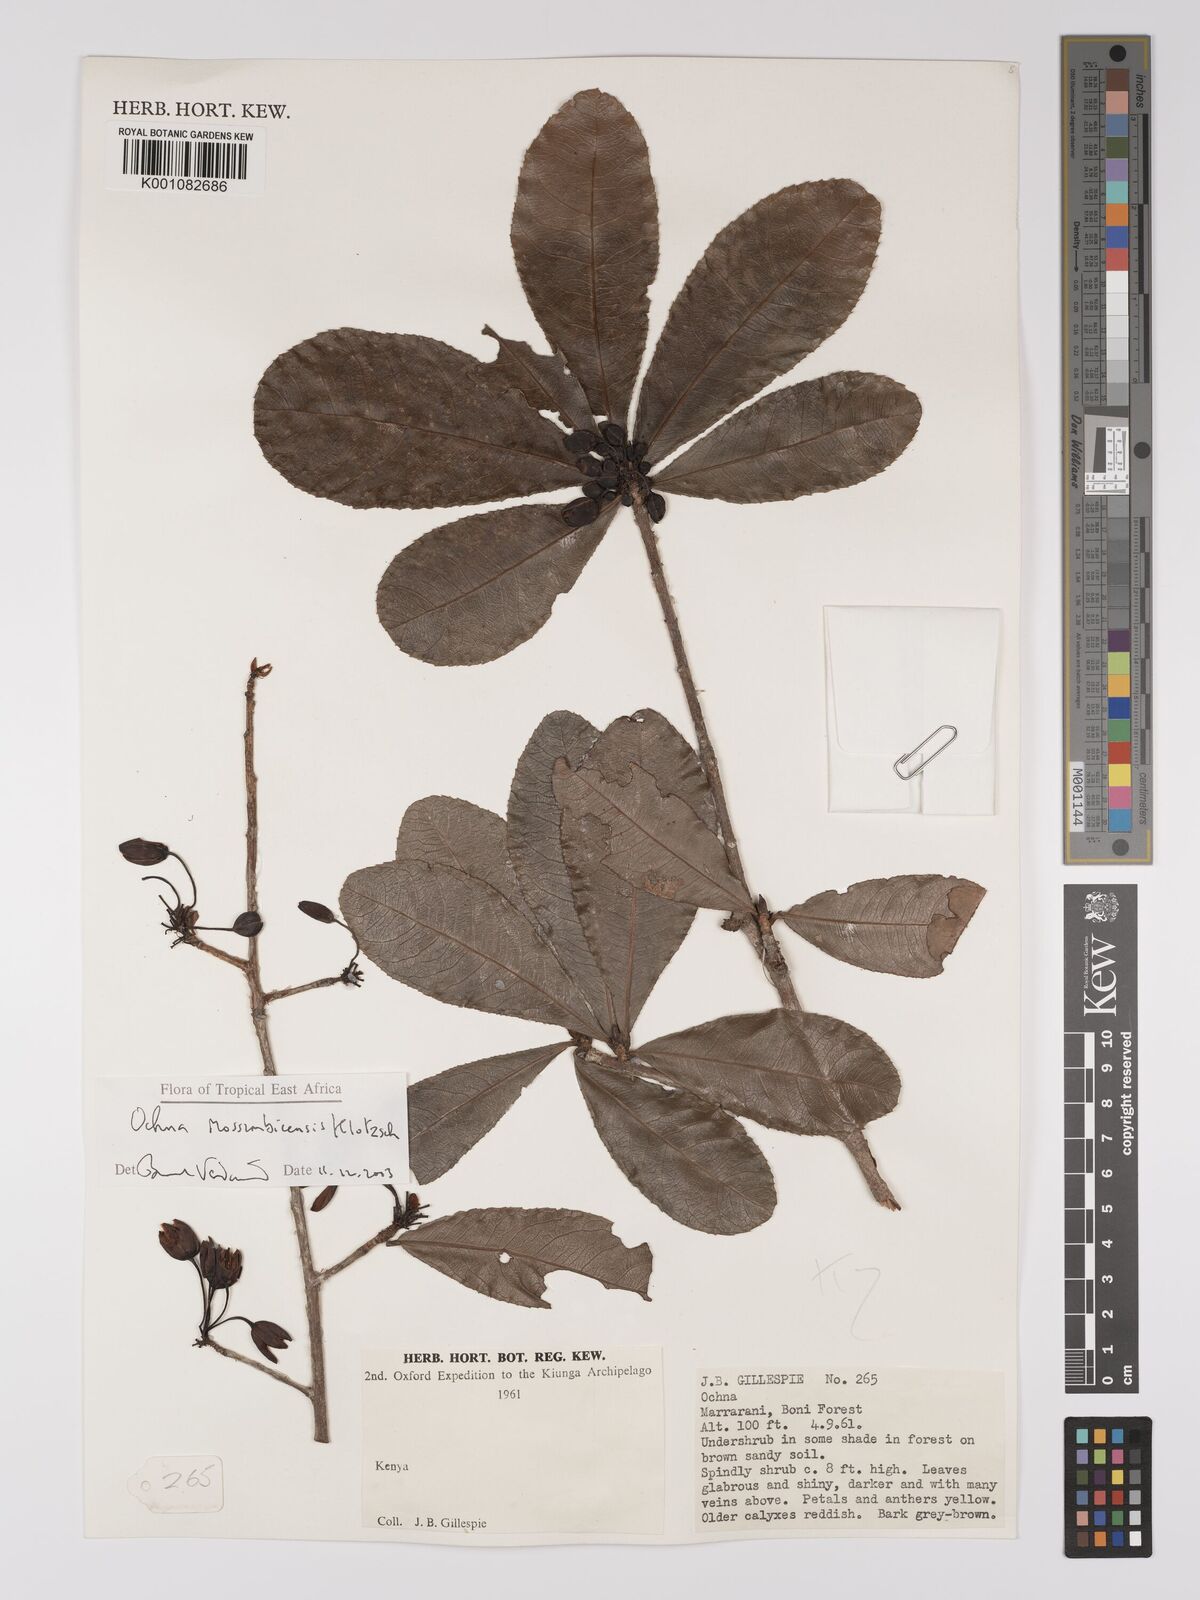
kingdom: Plantae
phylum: Tracheophyta
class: Magnoliopsida
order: Malpighiales
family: Ochnaceae
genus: Ochna
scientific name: Ochna atropurpurea
